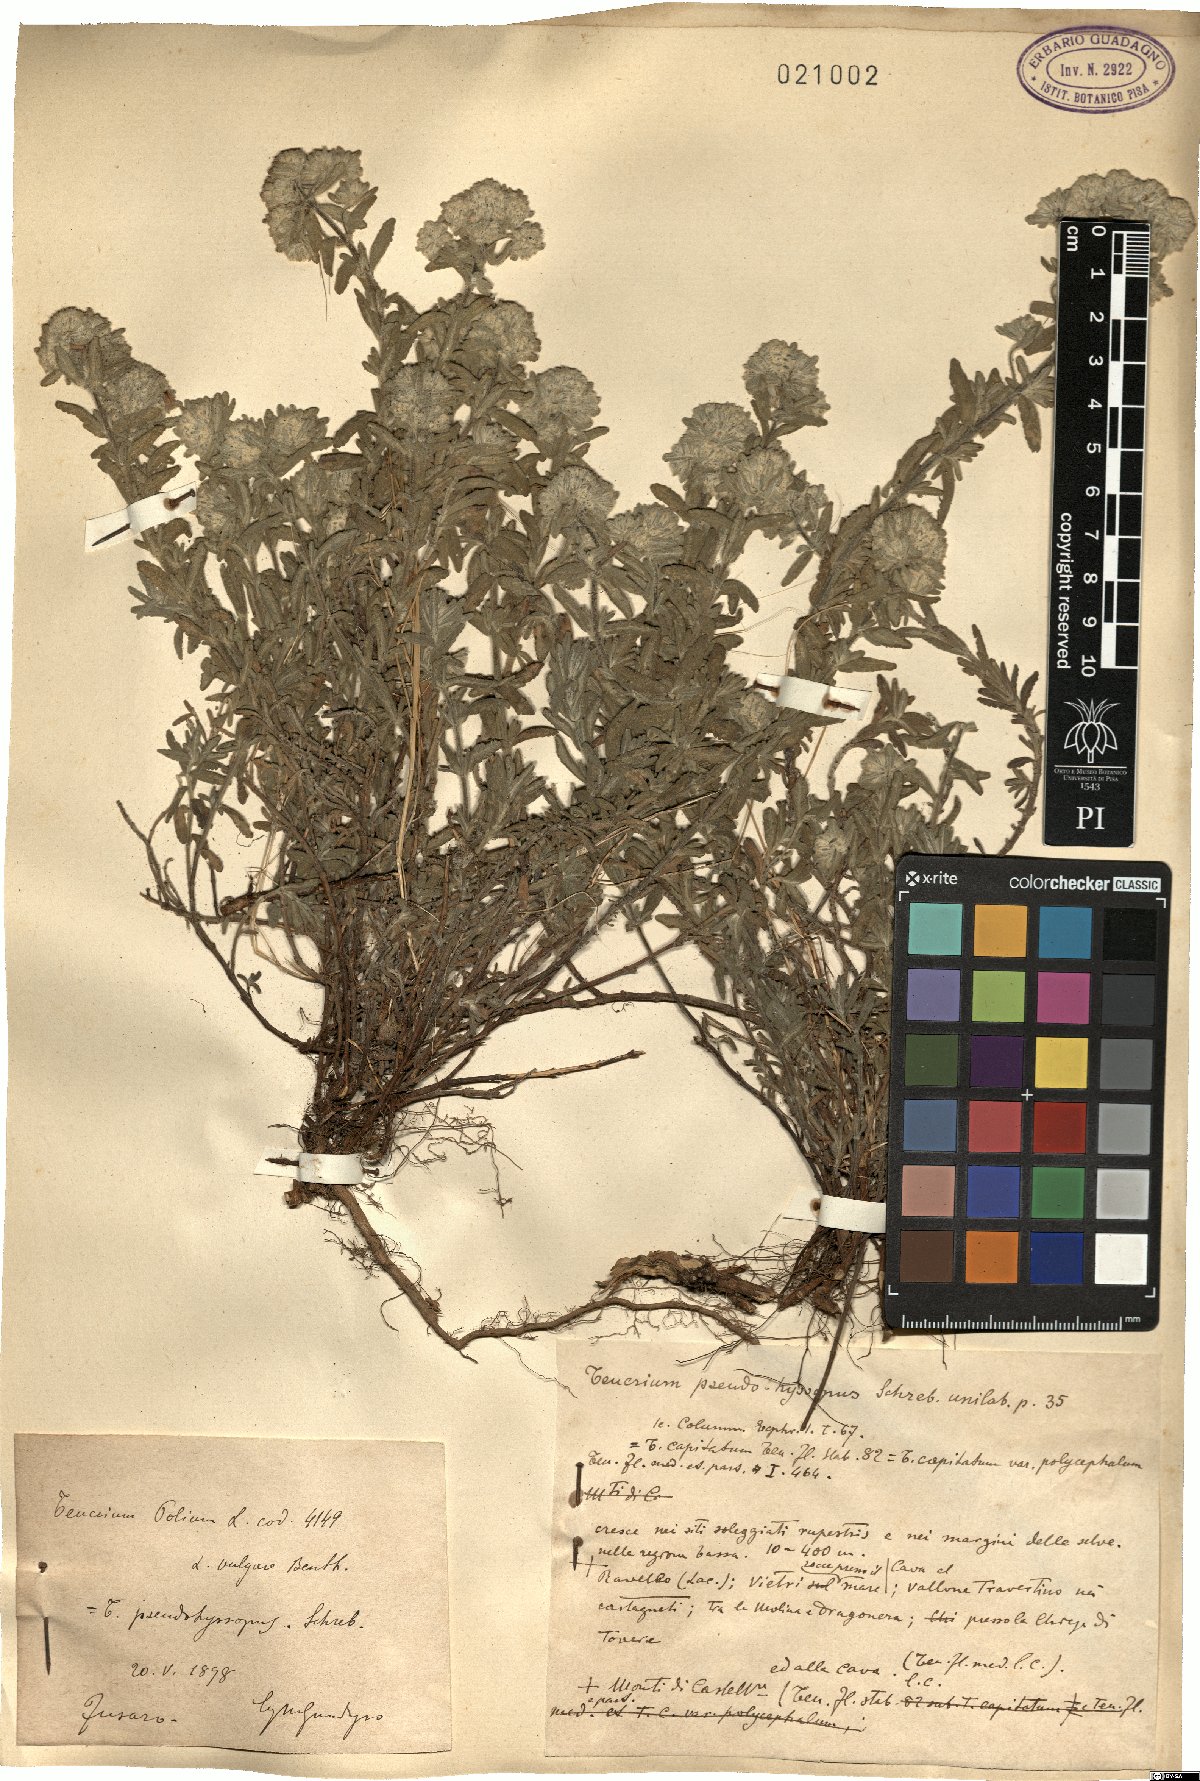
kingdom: Plantae
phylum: Tracheophyta
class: Magnoliopsida
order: Lamiales
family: Lamiaceae
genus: Teucrium
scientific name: Teucrium polium
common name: Poley
